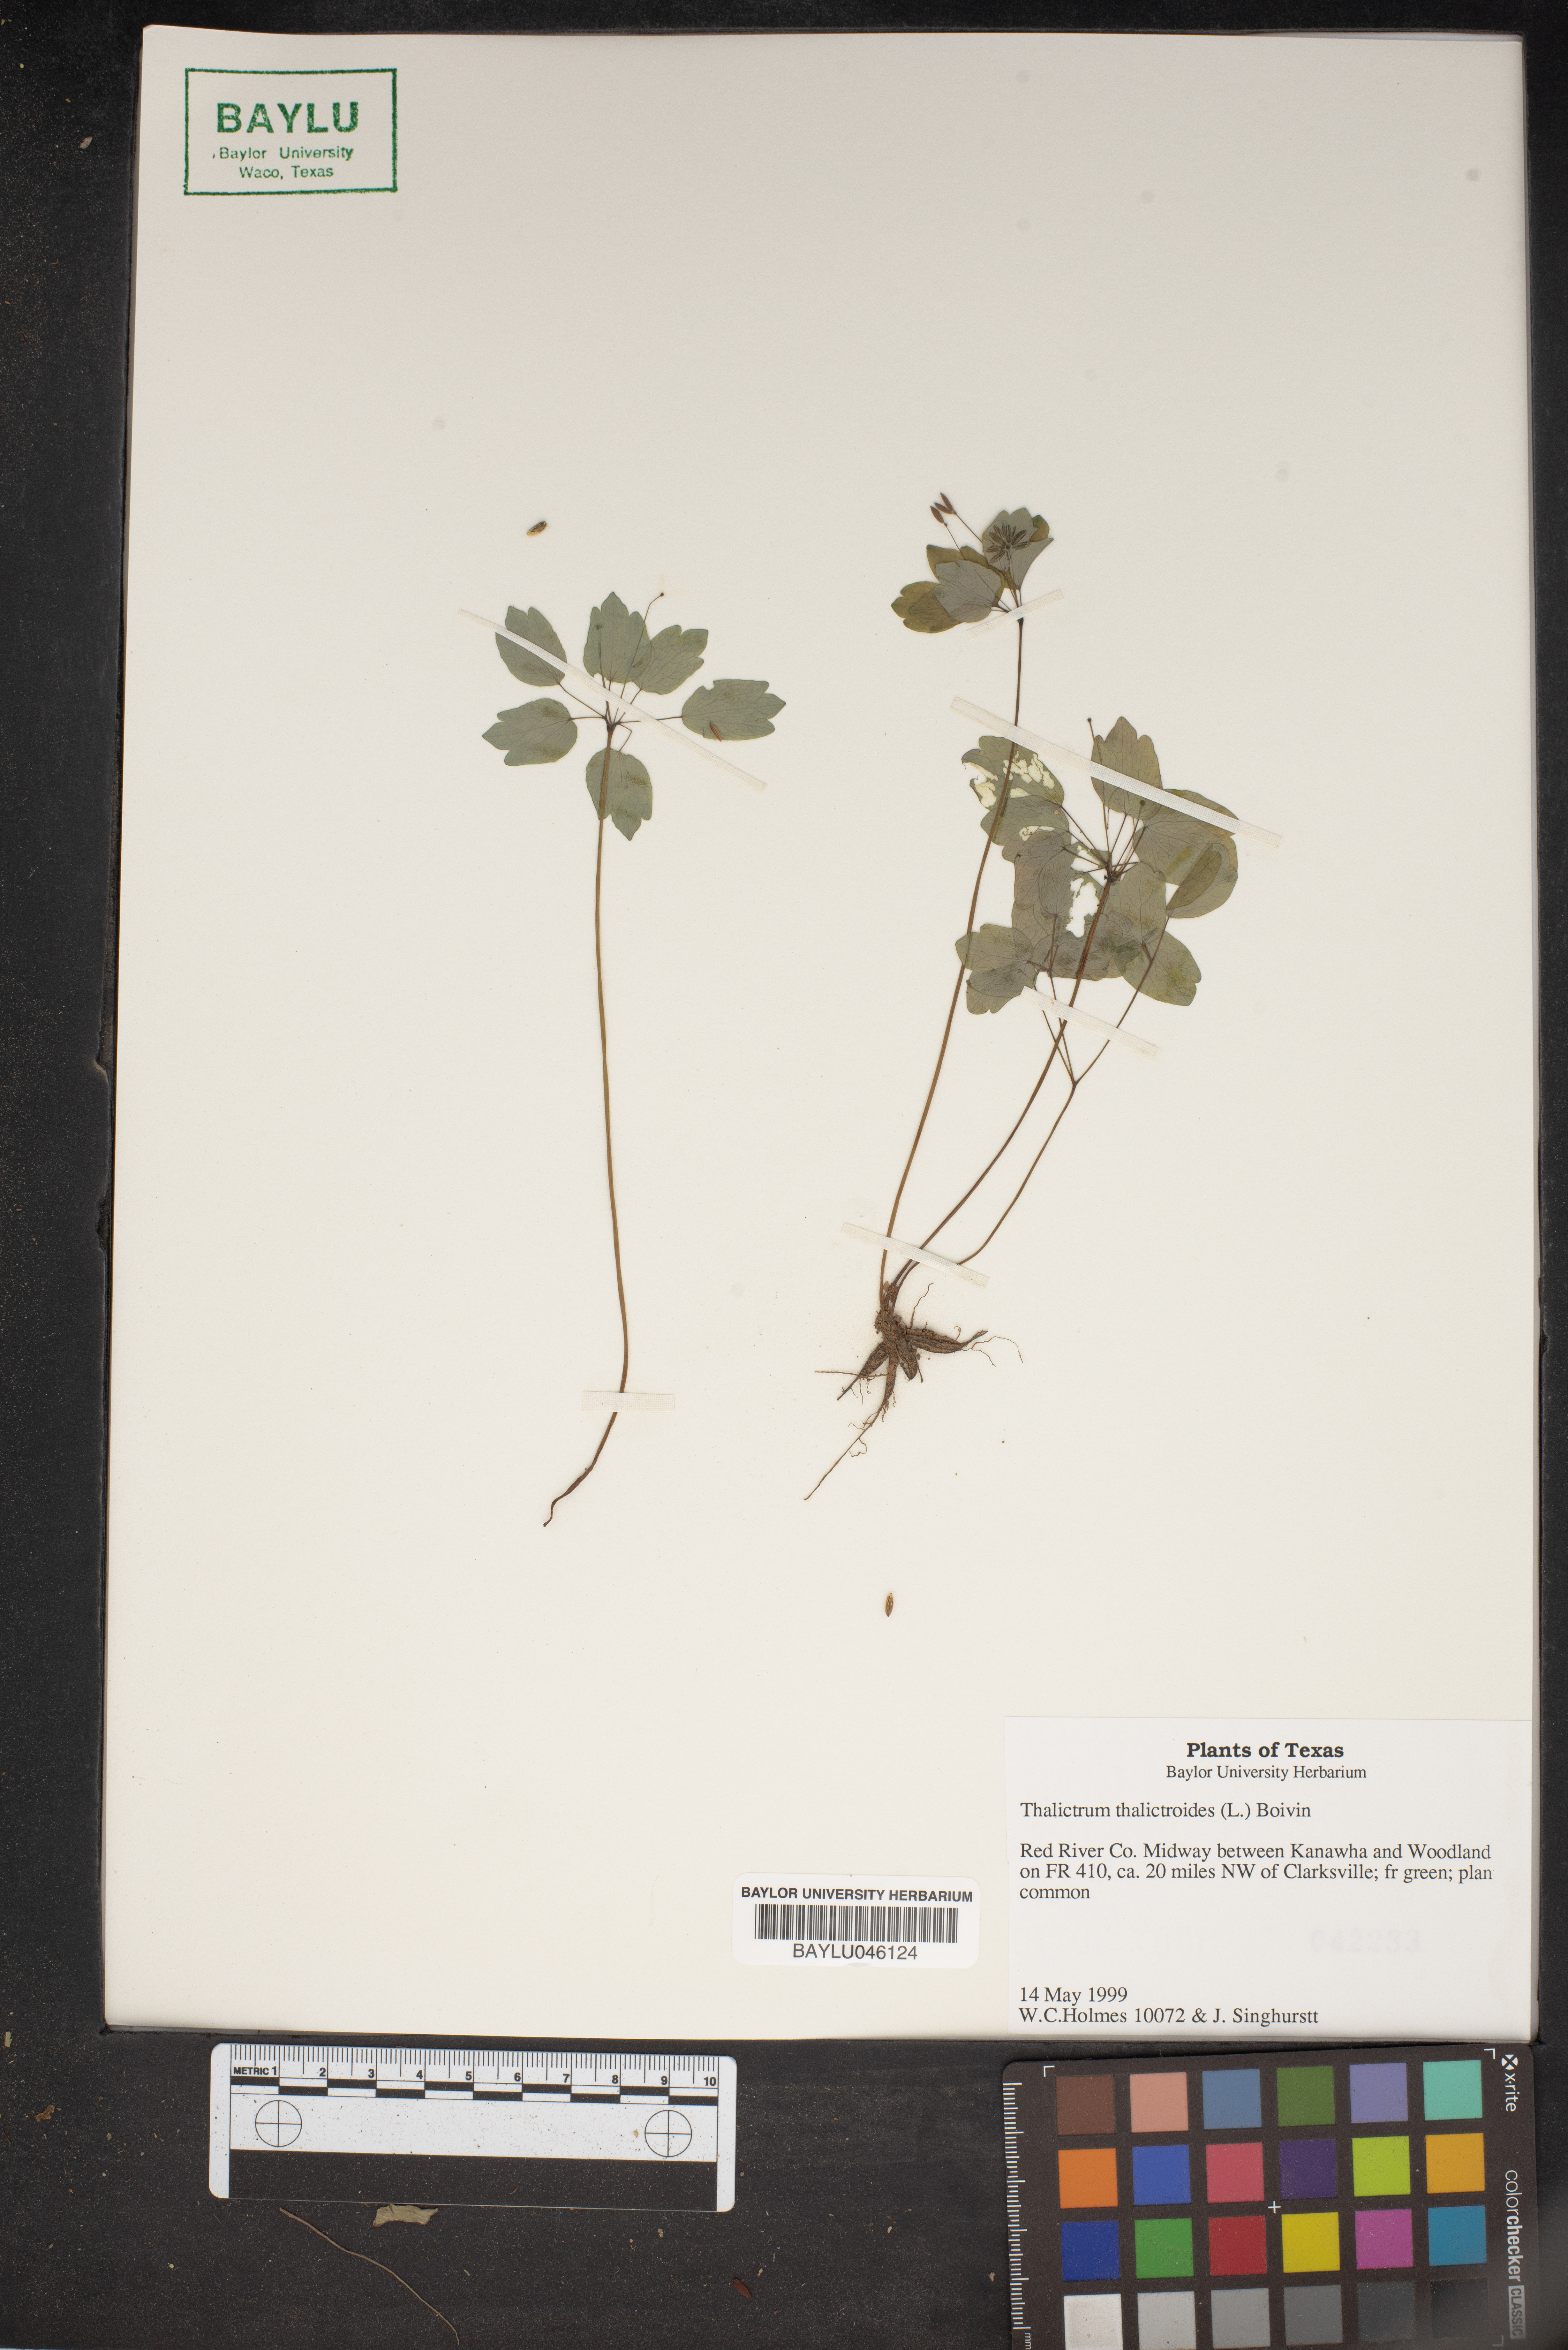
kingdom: Plantae
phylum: Tracheophyta
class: Magnoliopsida
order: Ranunculales
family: Ranunculaceae
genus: Thalictrum
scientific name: Thalictrum thalictroides
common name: Rue-anemone
